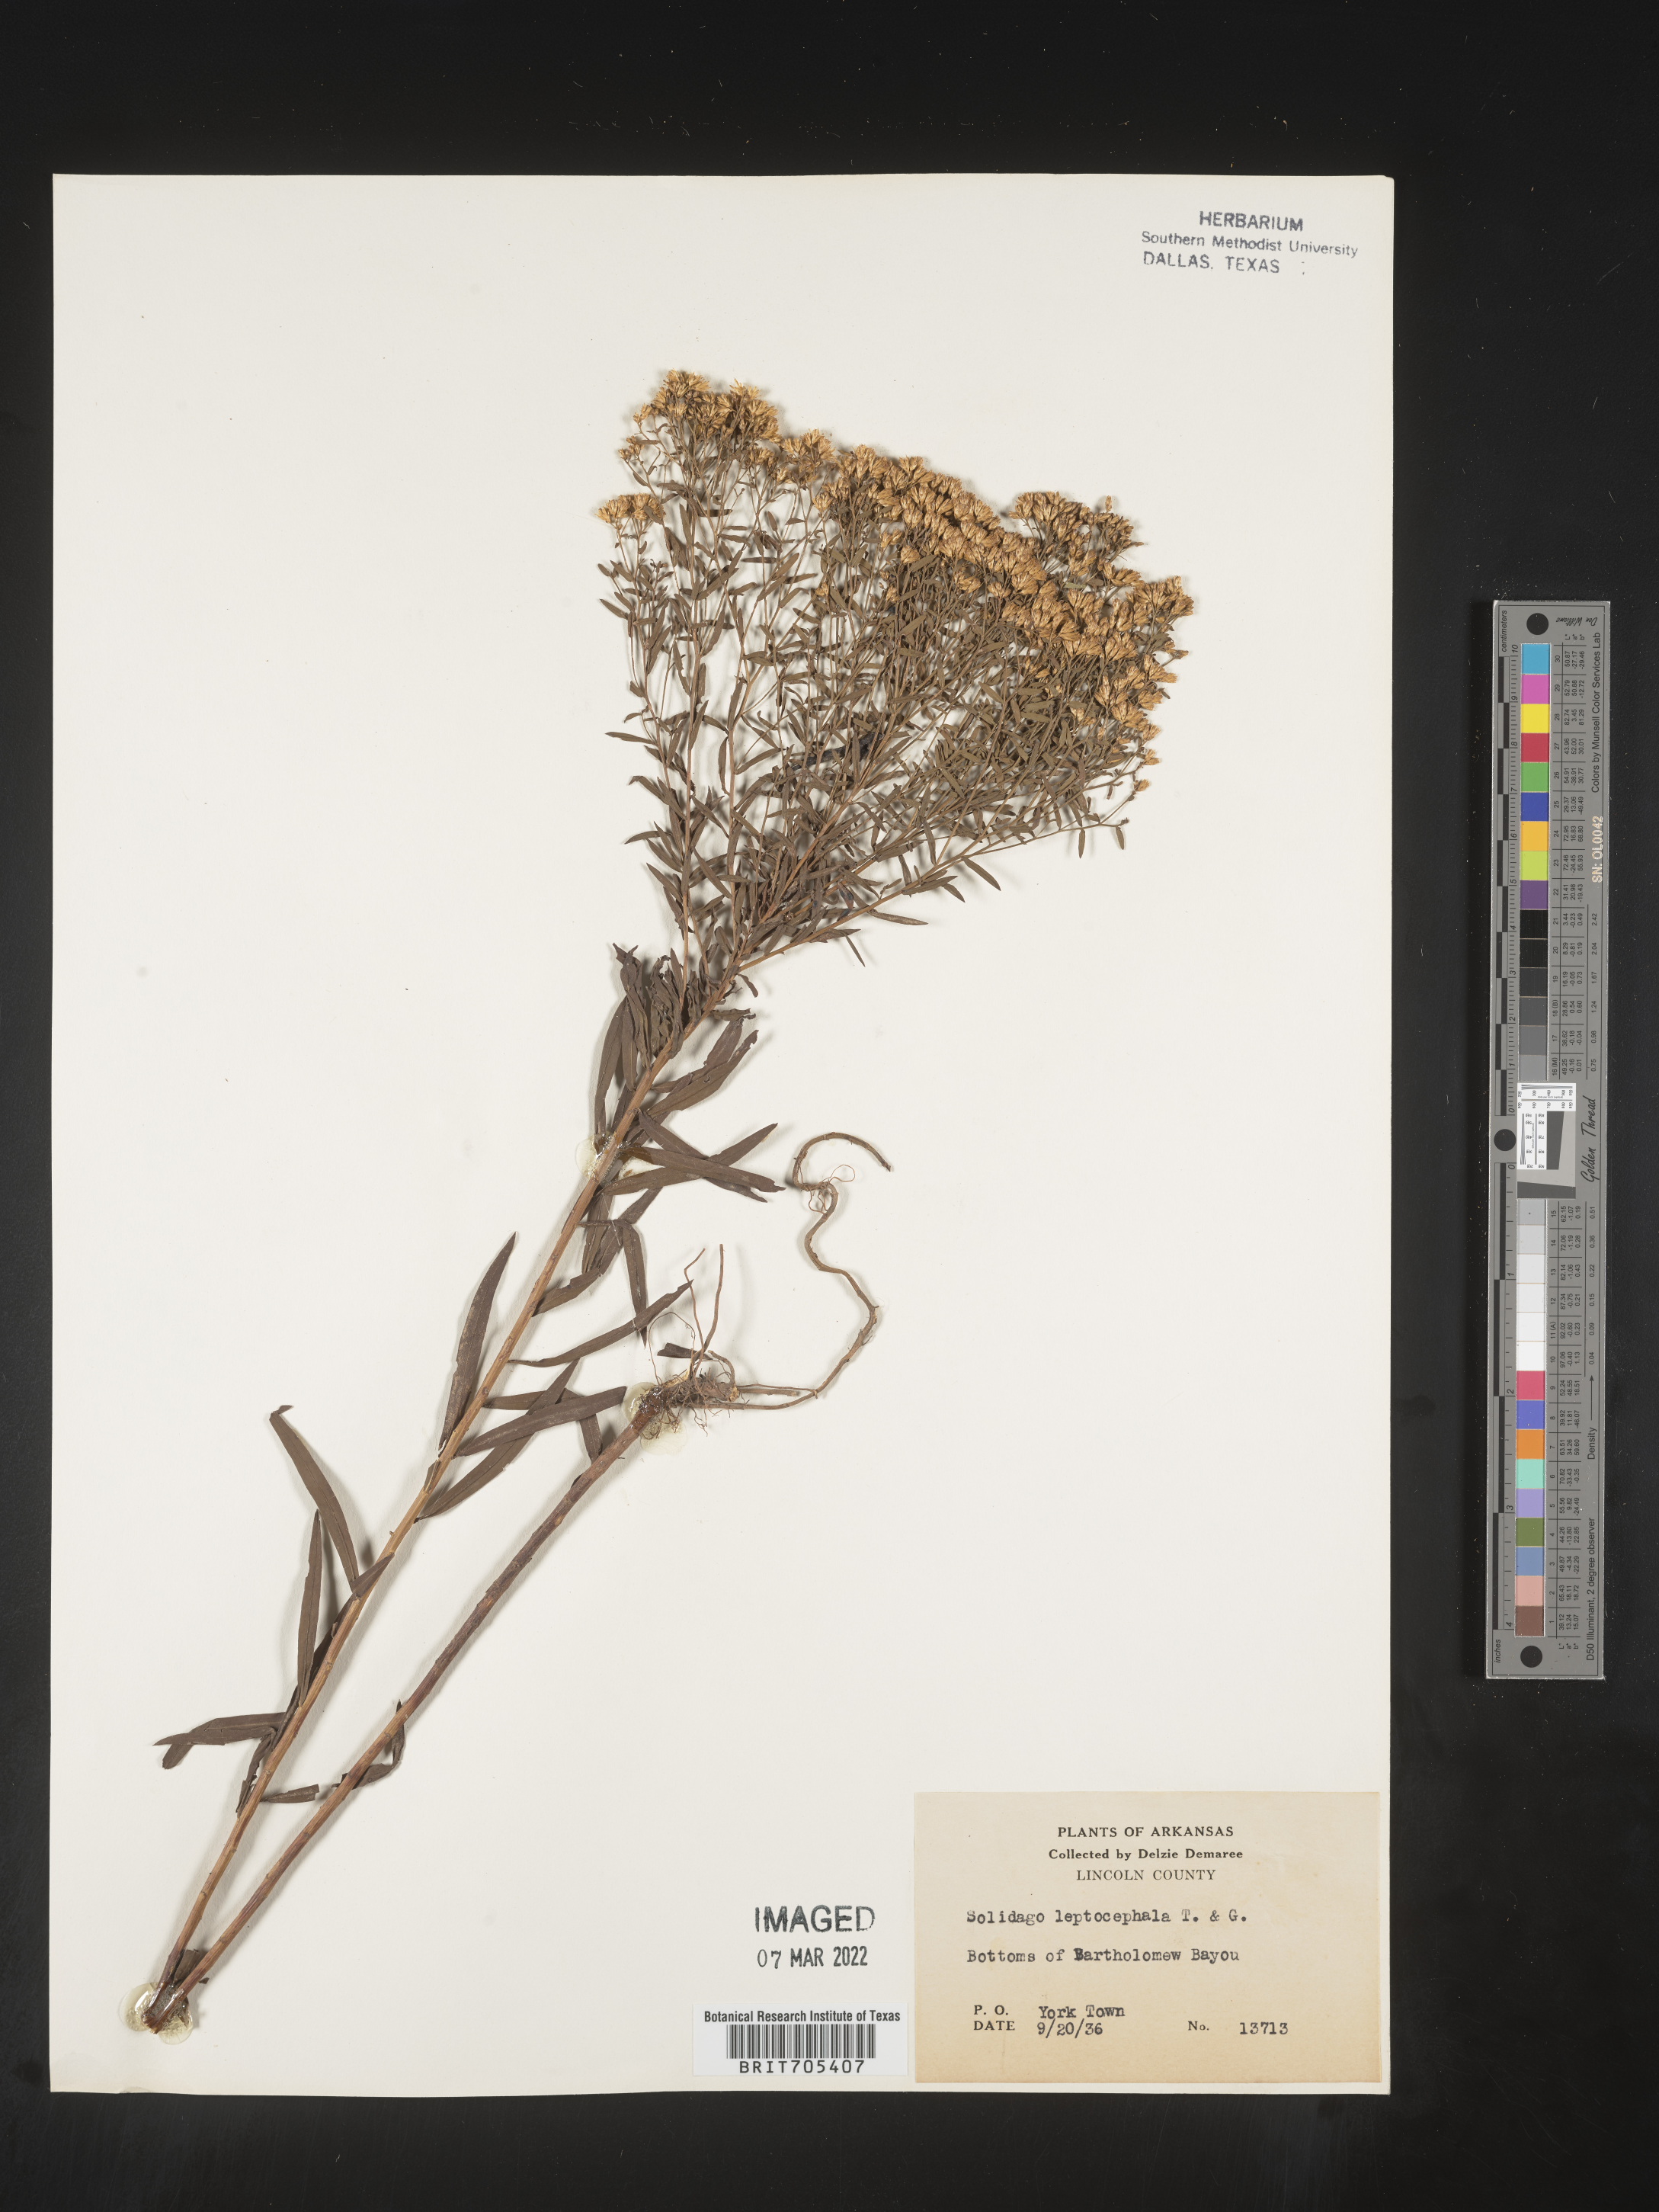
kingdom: Plantae
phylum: Tracheophyta
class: Magnoliopsida
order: Asterales
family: Asteraceae
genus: Euthamia
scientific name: Euthamia leptocephala
